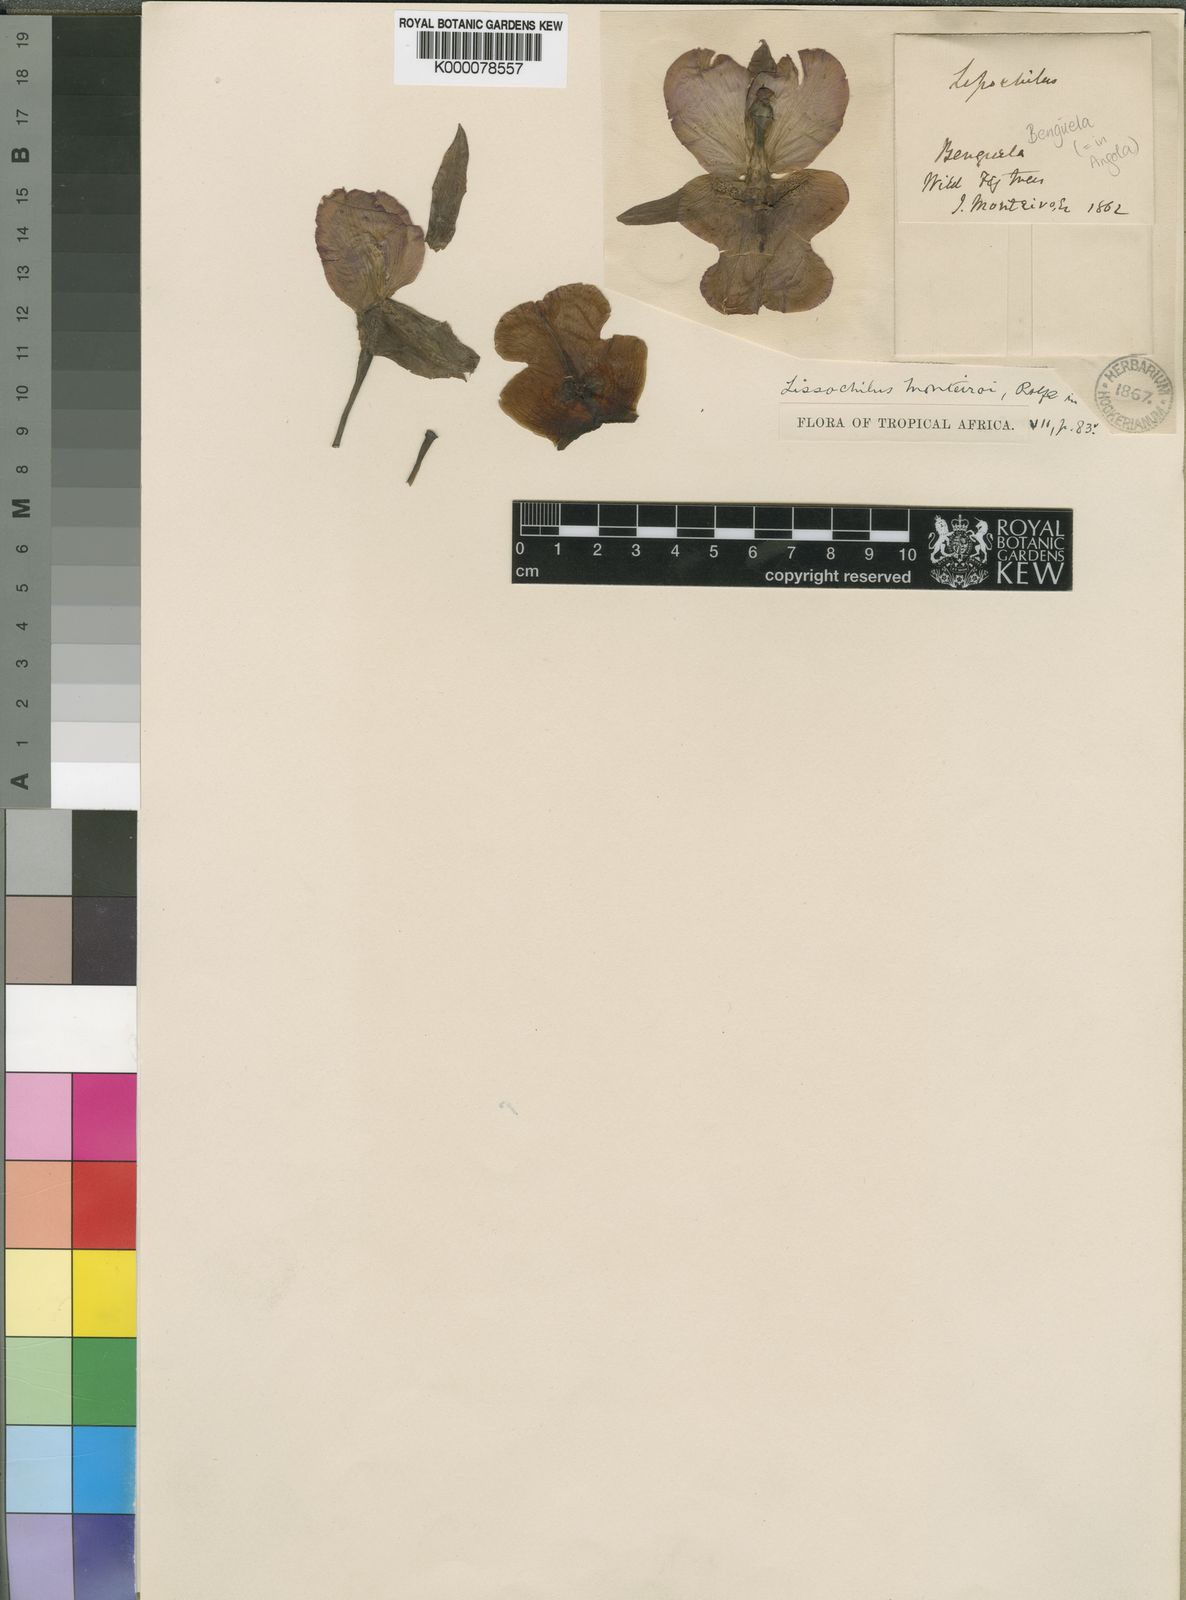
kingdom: Plantae
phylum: Tracheophyta
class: Liliopsida
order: Asparagales
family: Orchidaceae
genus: Eulophia
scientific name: Eulophia cucullata
